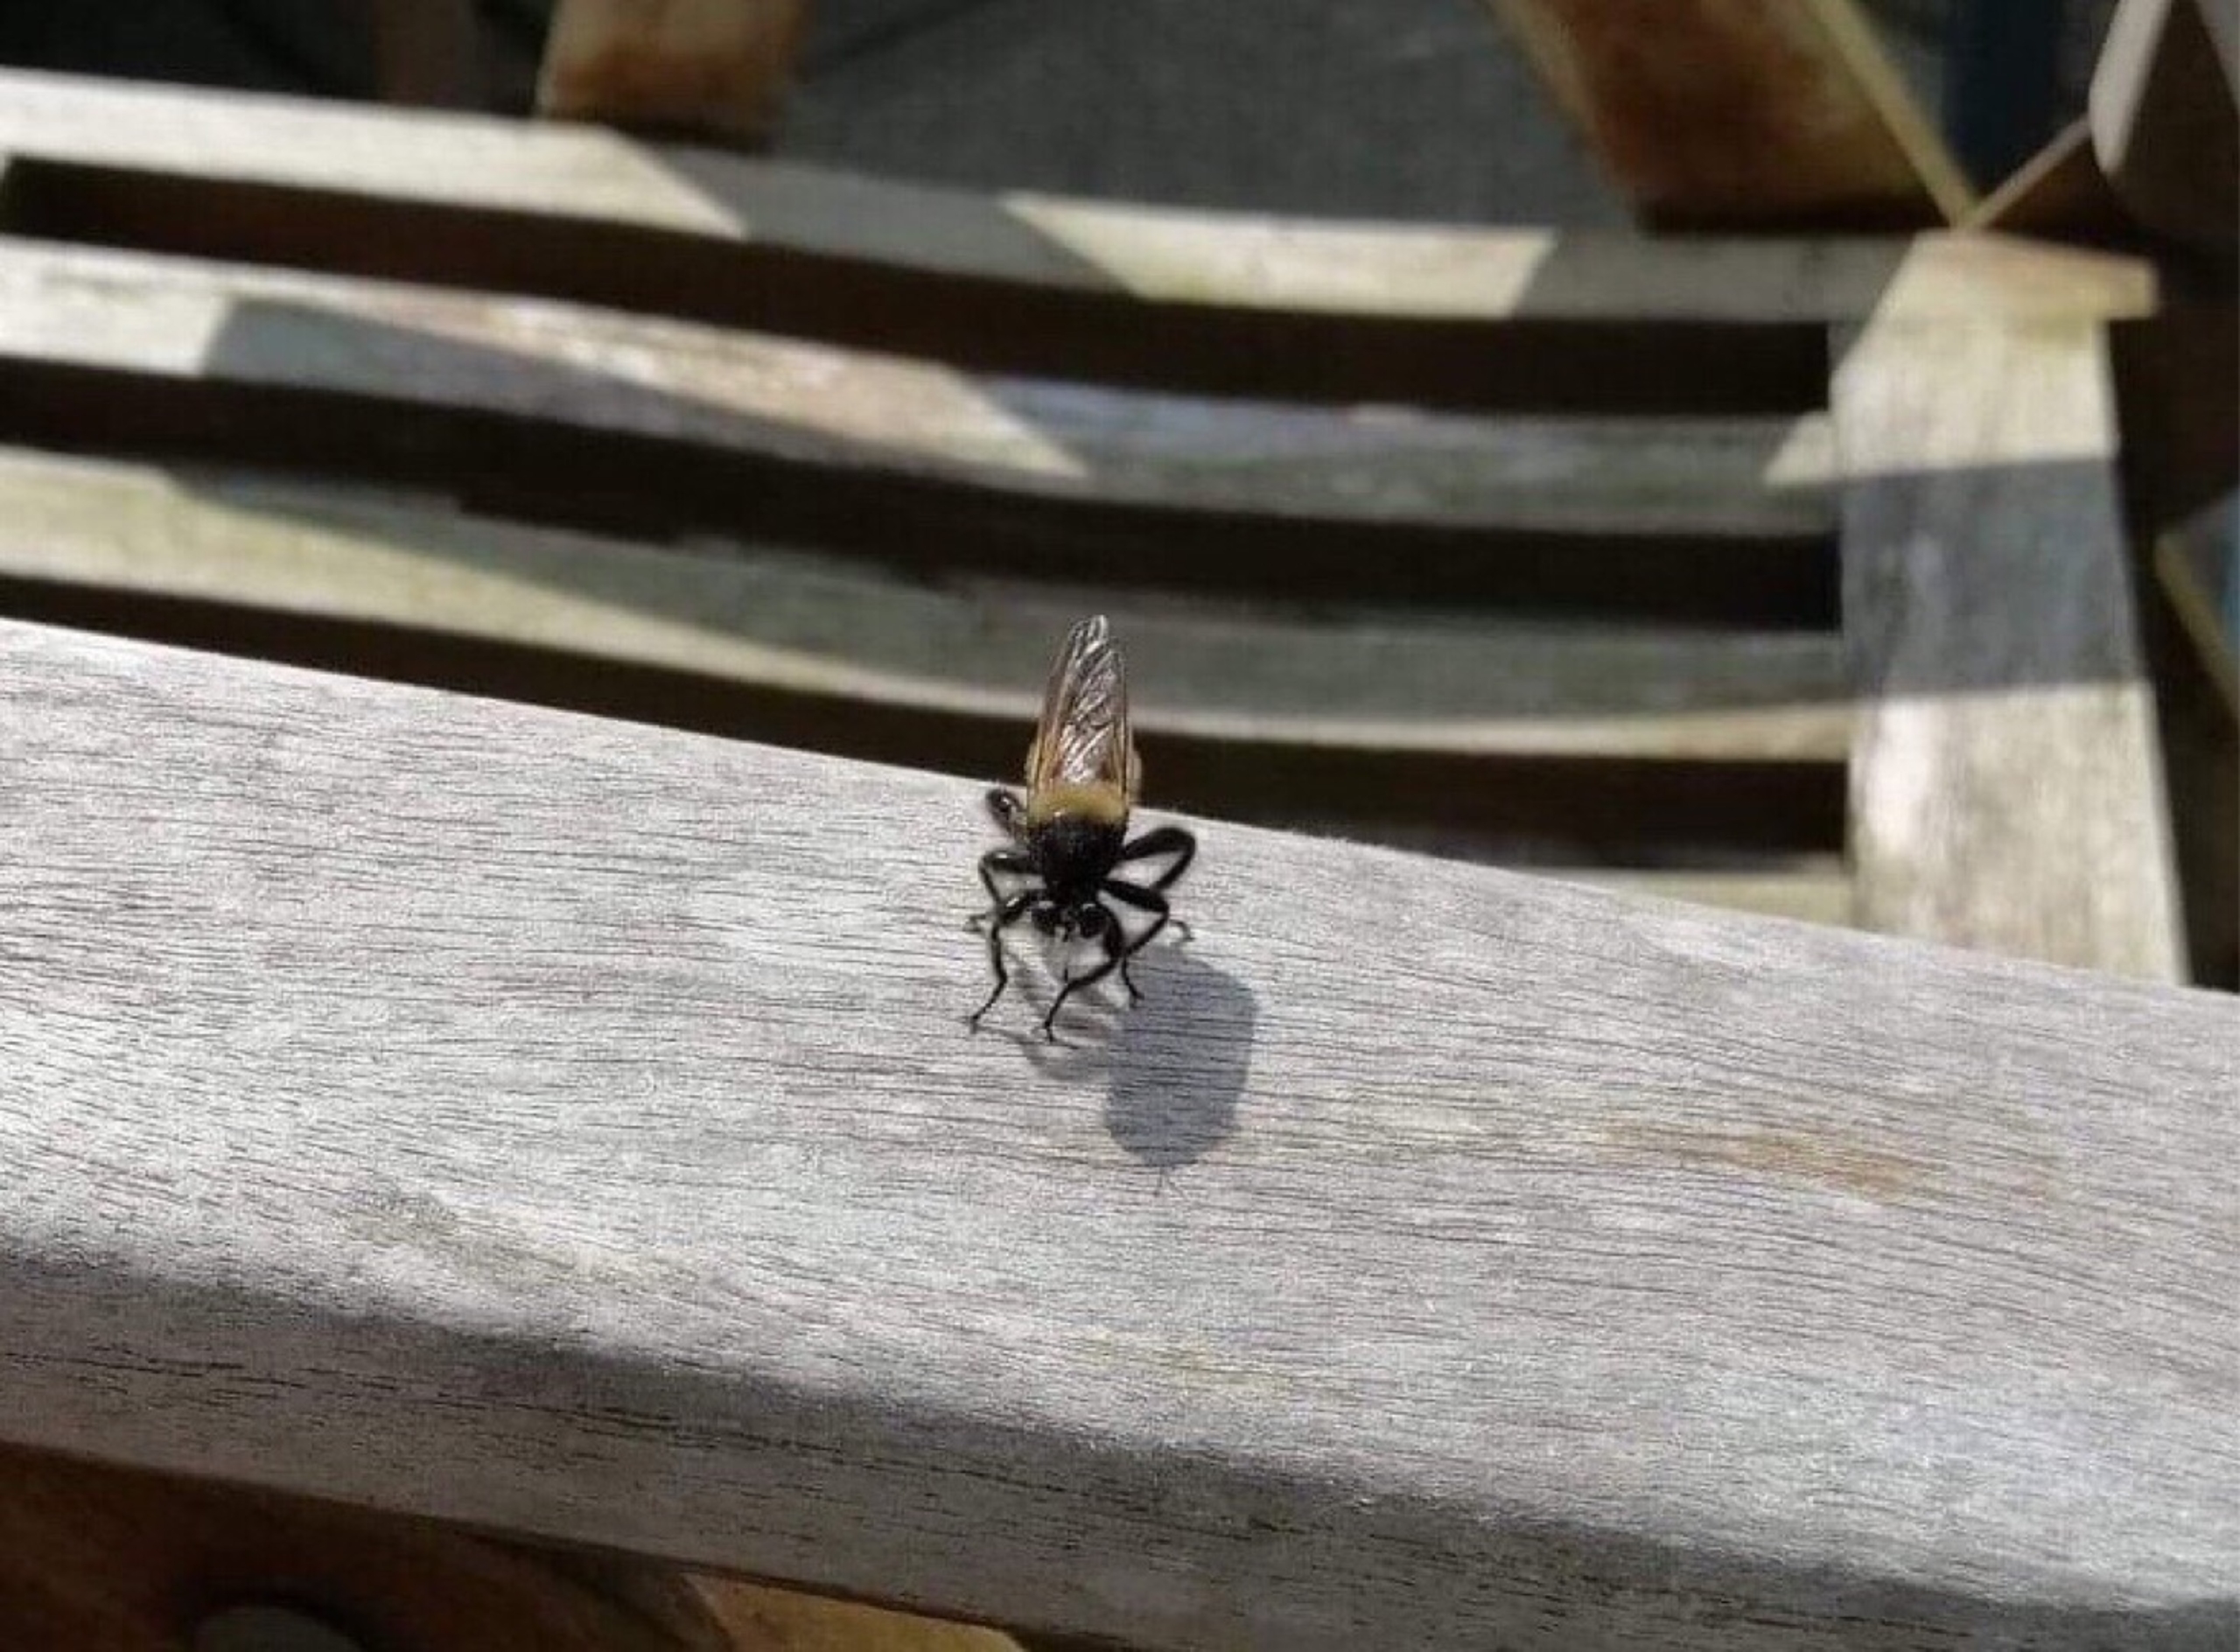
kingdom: Animalia
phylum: Arthropoda
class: Insecta
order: Diptera
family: Asilidae
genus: Laphria
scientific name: Laphria
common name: Vedrovfluer
